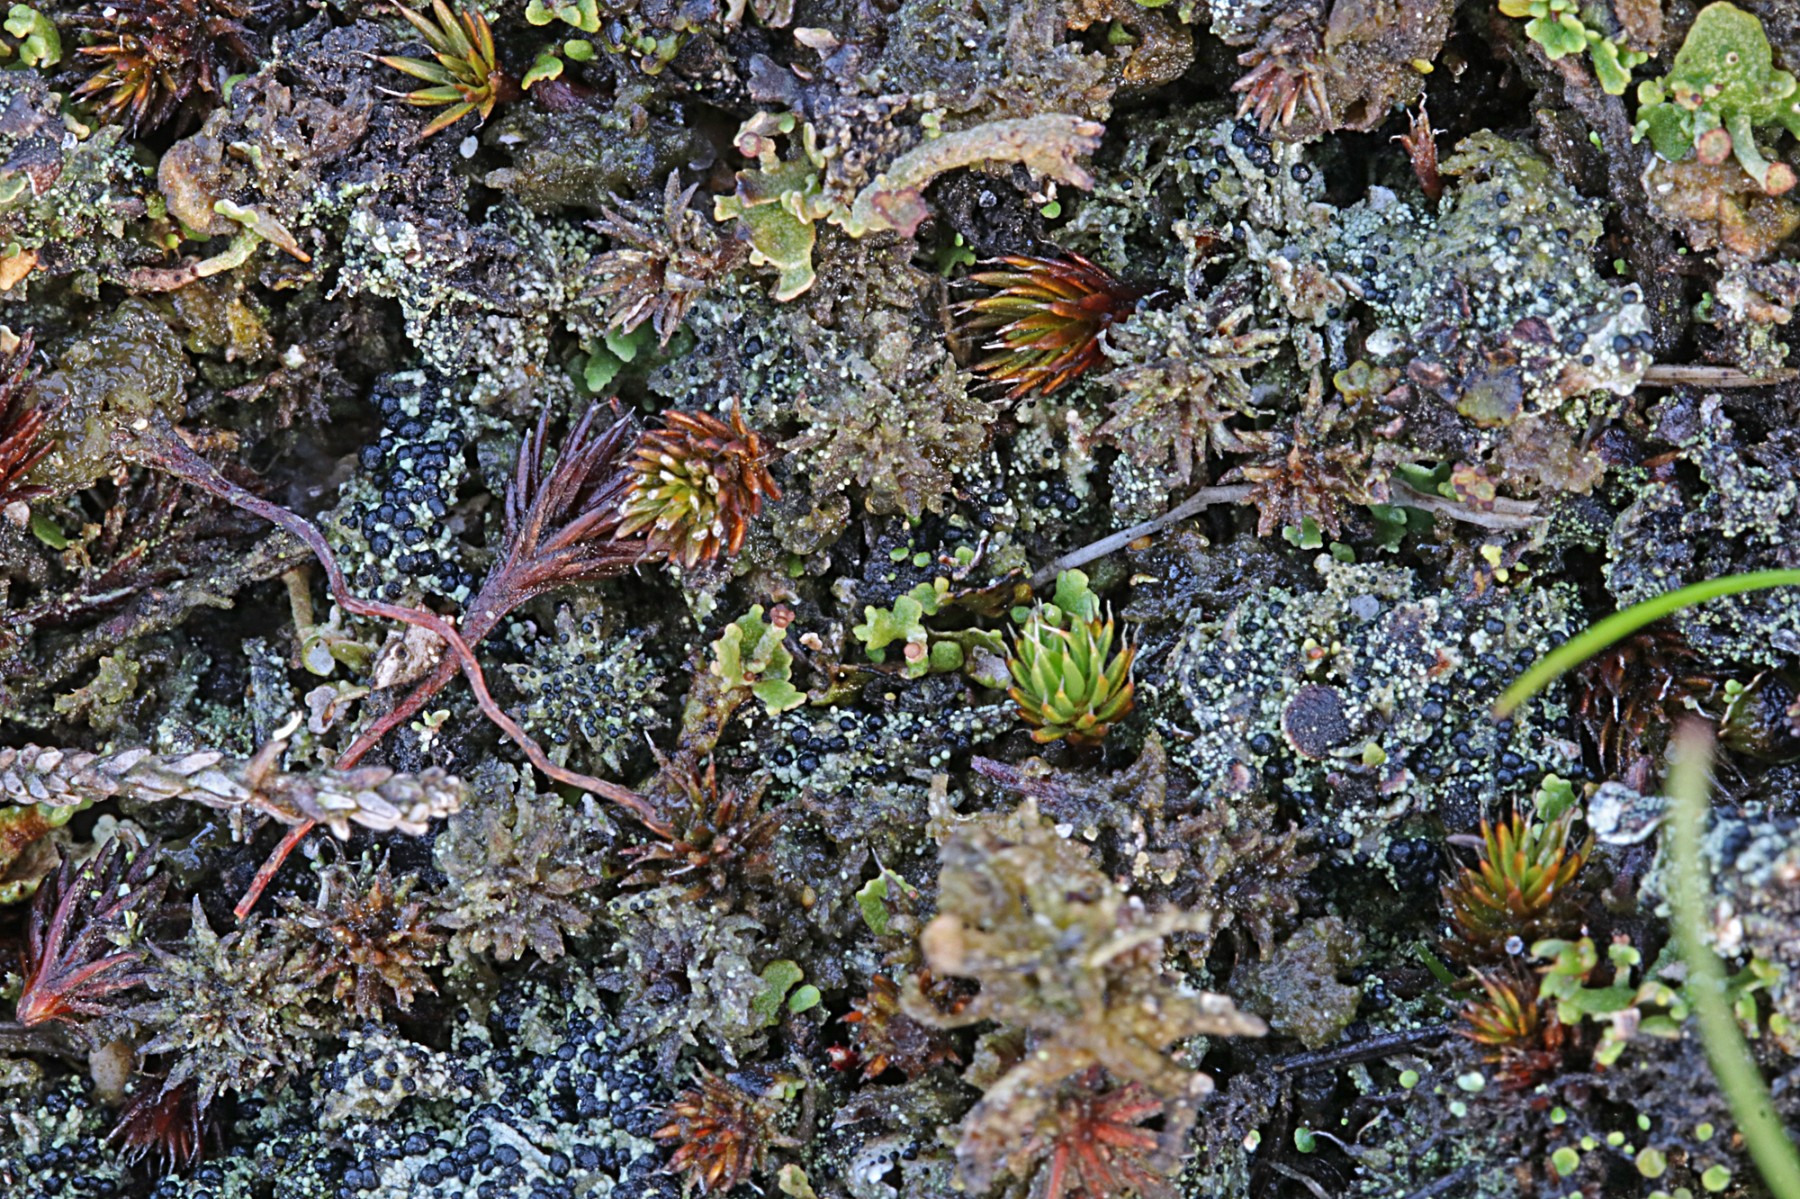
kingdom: Fungi
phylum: Ascomycota
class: Lecanoromycetes
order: Lecanorales
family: Byssolomataceae
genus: Micarea
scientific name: Micarea lignaria
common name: tørve-knaplav
